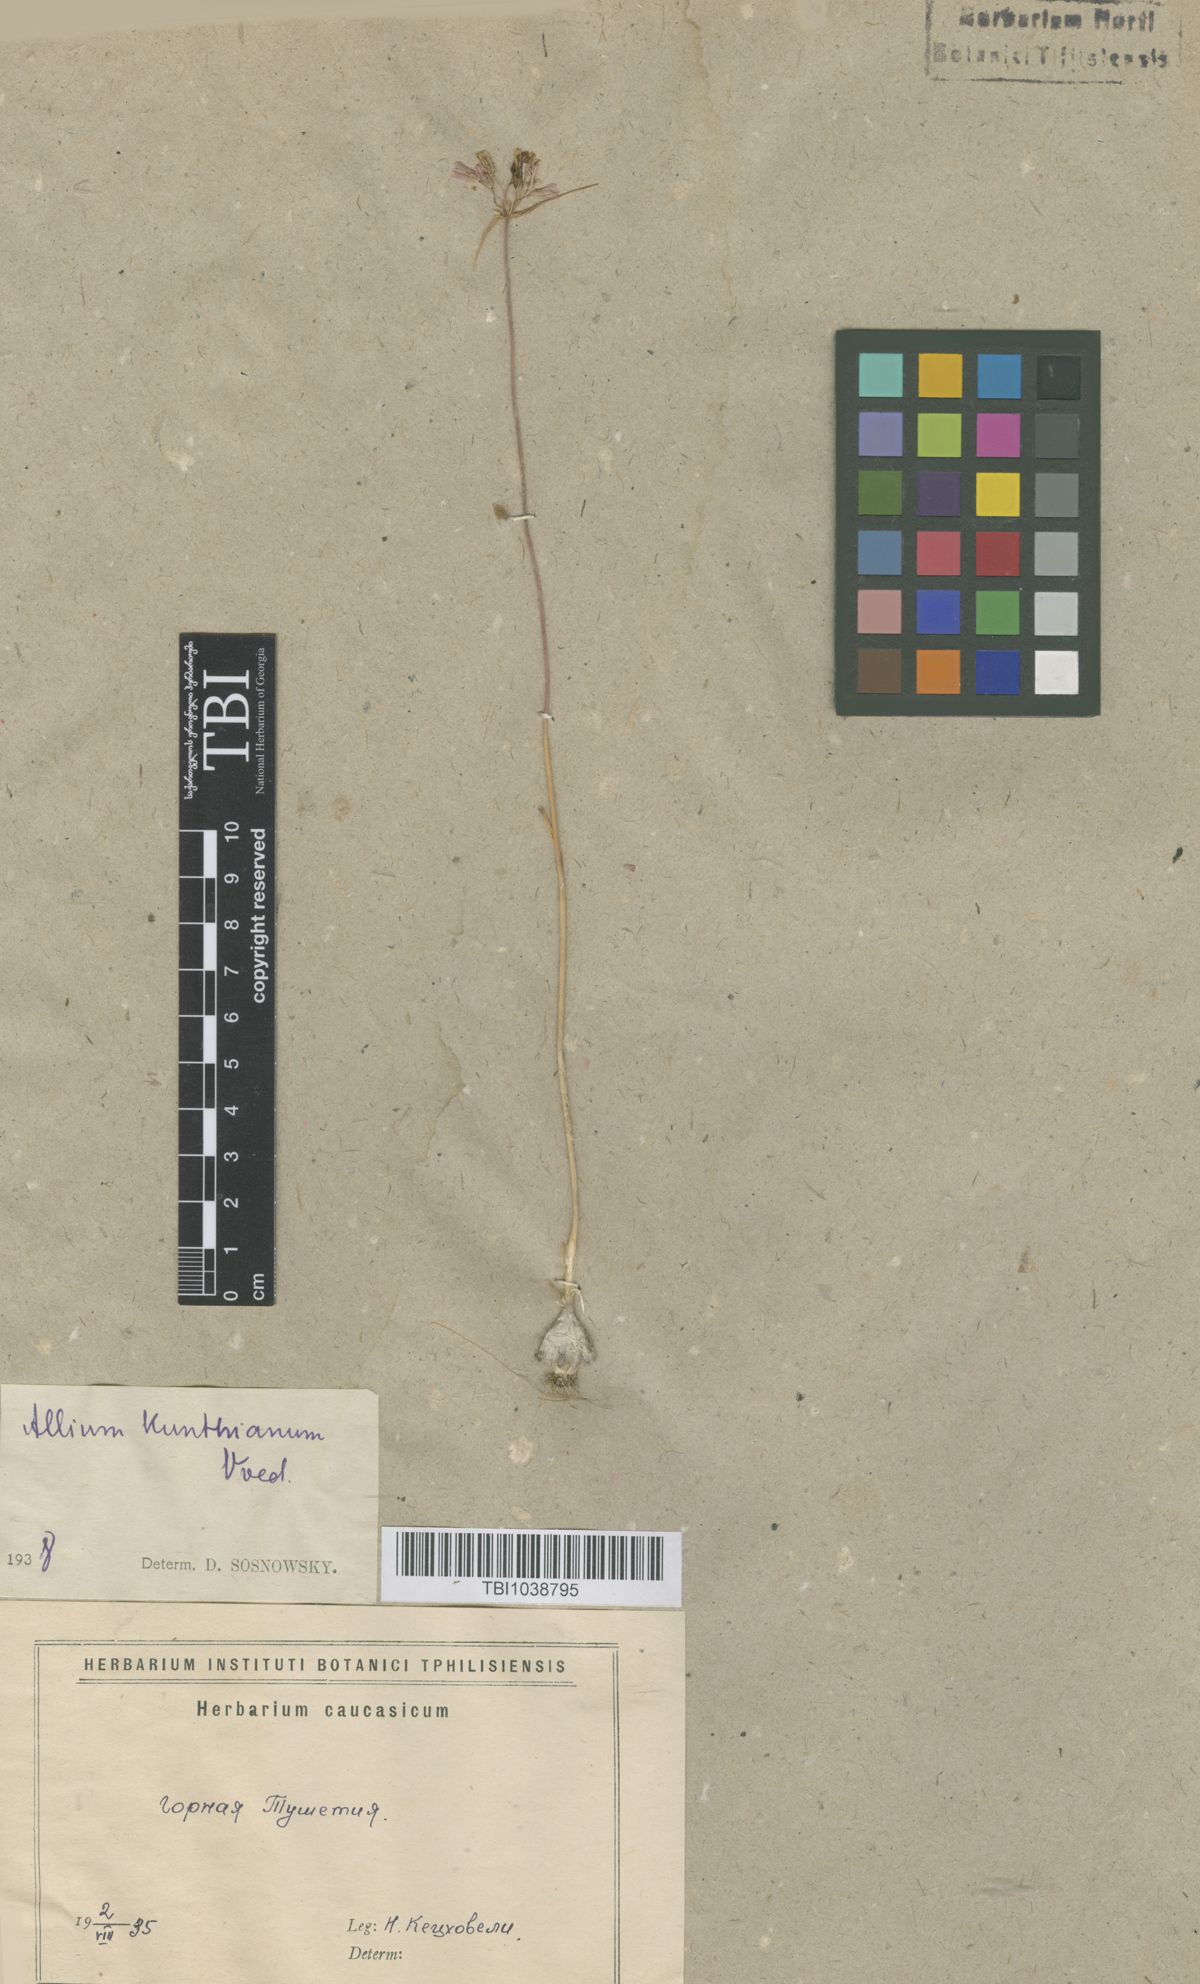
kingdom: Plantae
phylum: Tracheophyta
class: Liliopsida
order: Asparagales
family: Amaryllidaceae
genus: Allium
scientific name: Allium kunthianum
